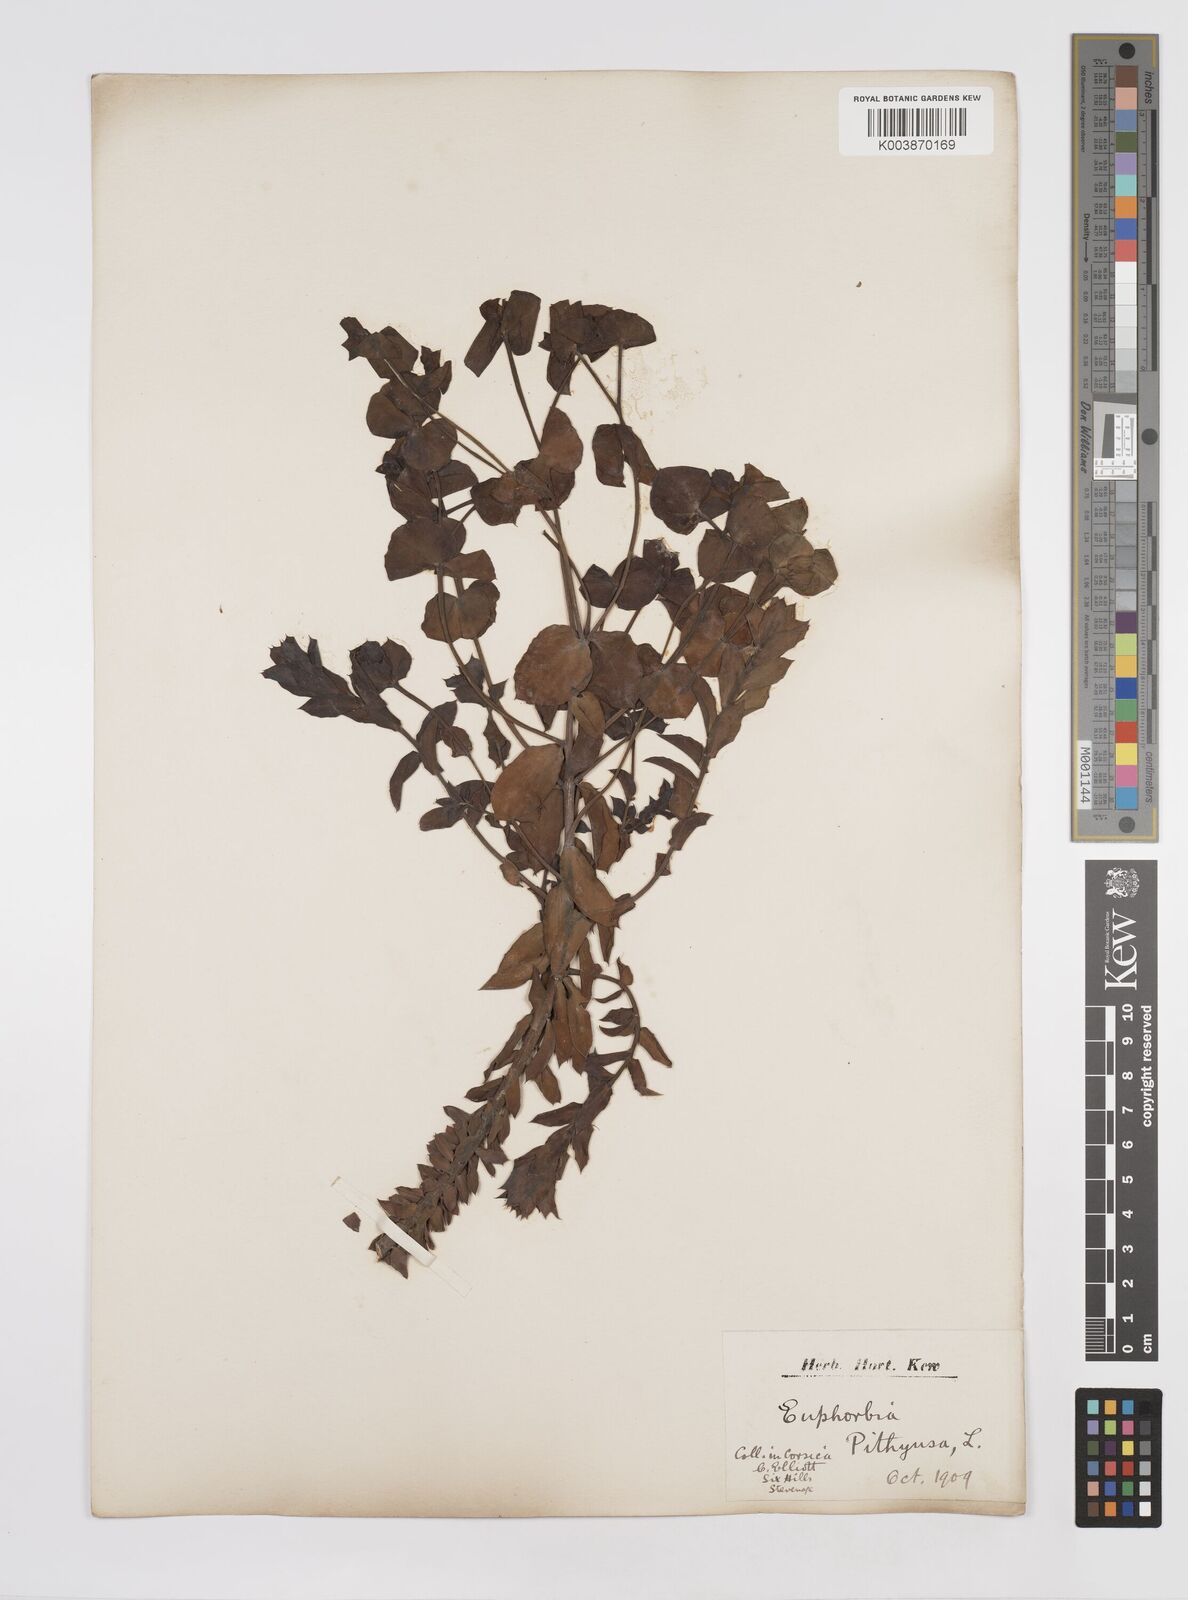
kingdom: Plantae
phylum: Tracheophyta
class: Magnoliopsida
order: Malpighiales
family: Euphorbiaceae
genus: Euphorbia
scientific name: Euphorbia pithyusa
